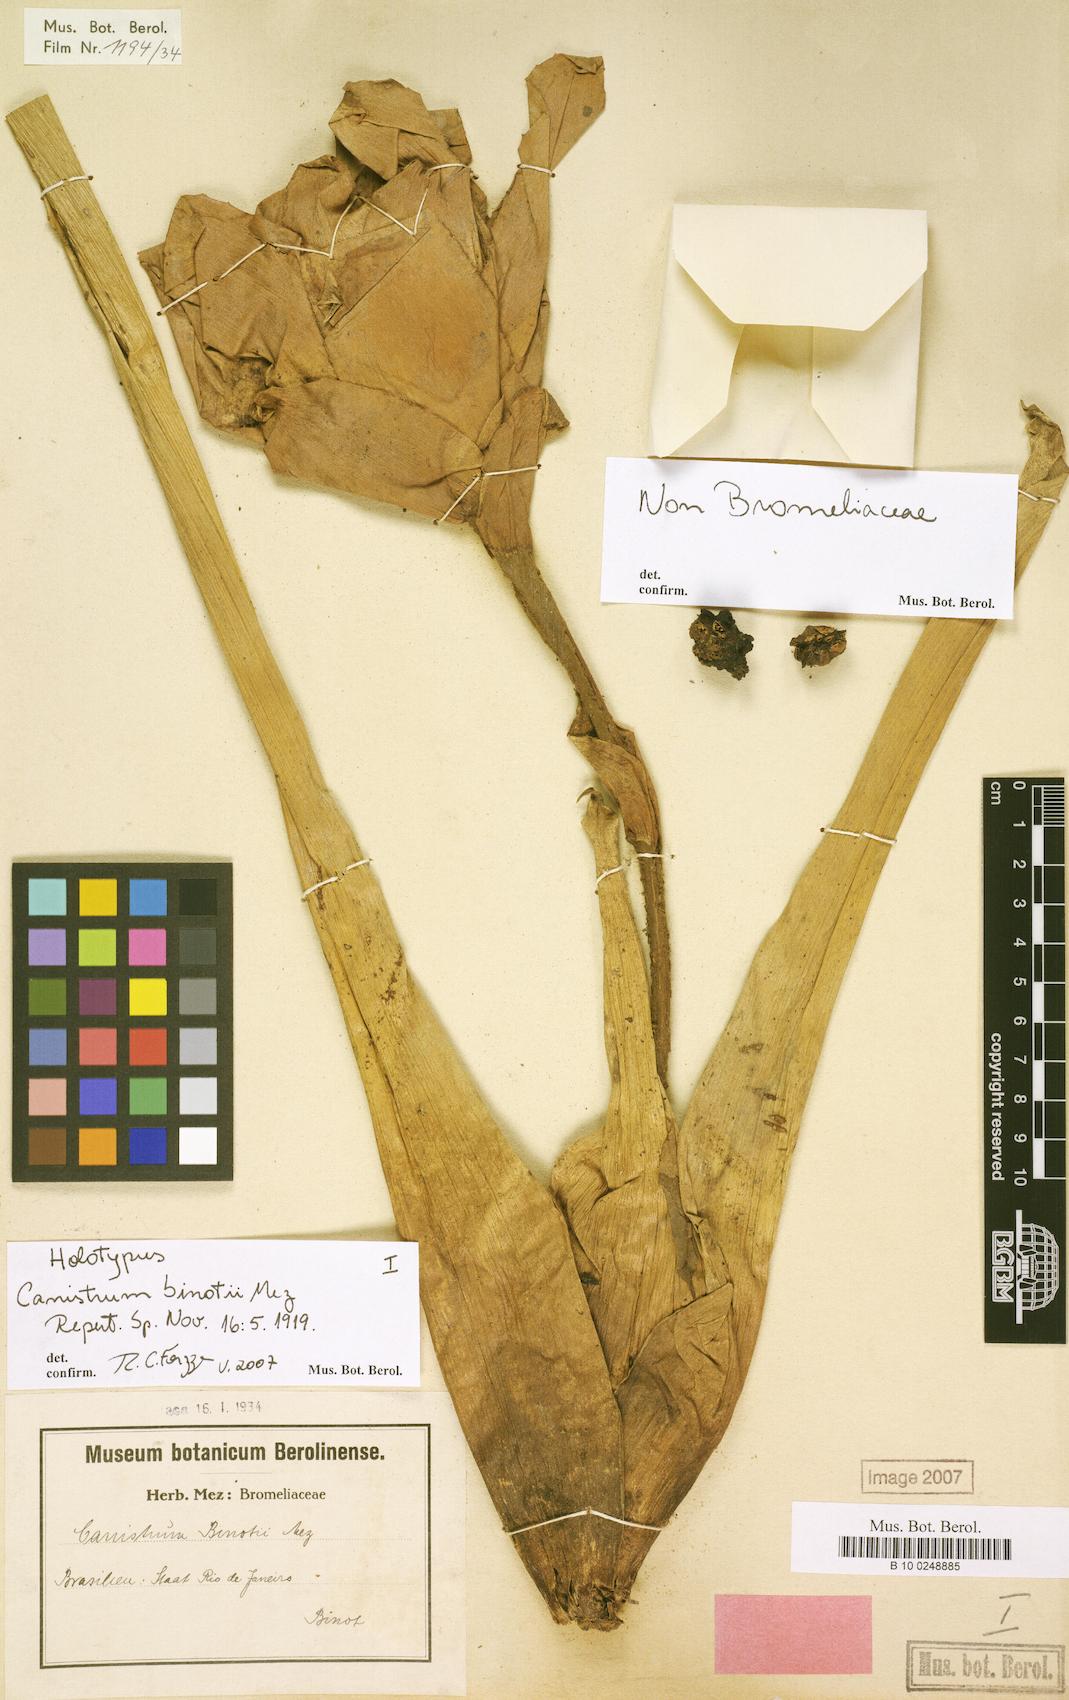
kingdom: Plantae
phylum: Tracheophyta
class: Liliopsida
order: Poales
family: Bromeliaceae
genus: Edmundoa
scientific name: Edmundoa lindenii
